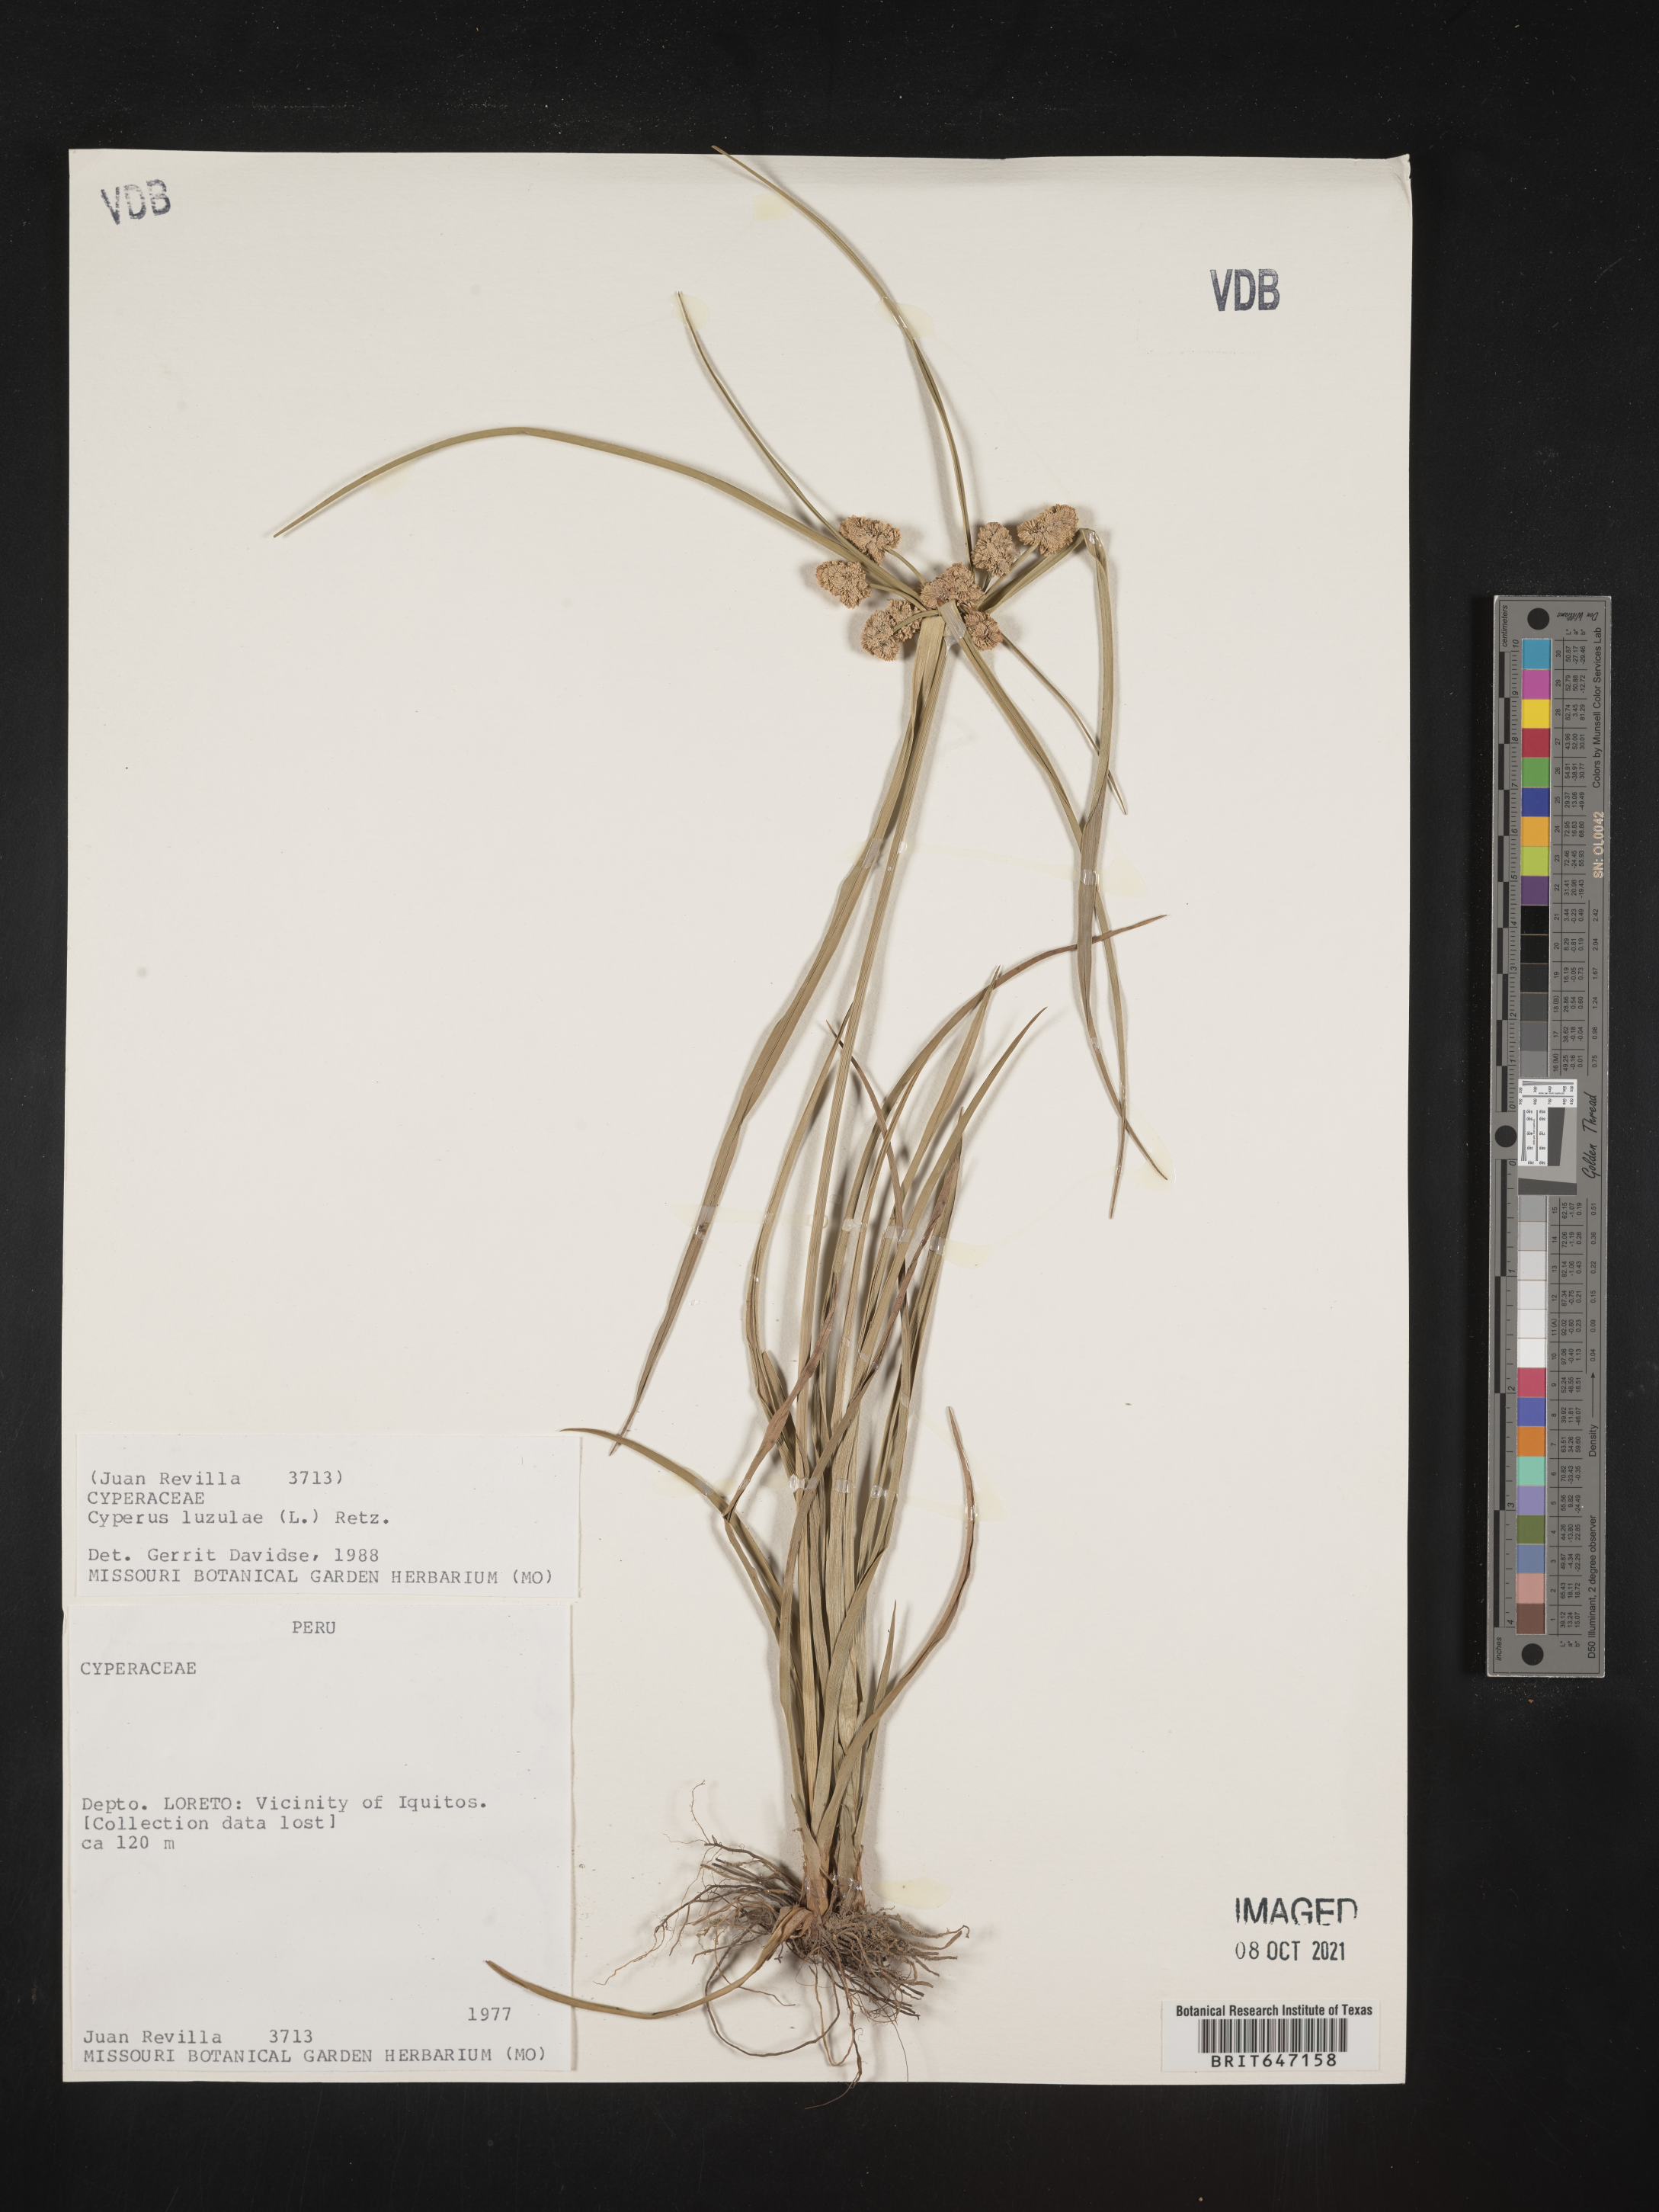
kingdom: Plantae
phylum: Tracheophyta
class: Liliopsida
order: Poales
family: Cyperaceae
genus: Cyperus
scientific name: Cyperus luzulae
